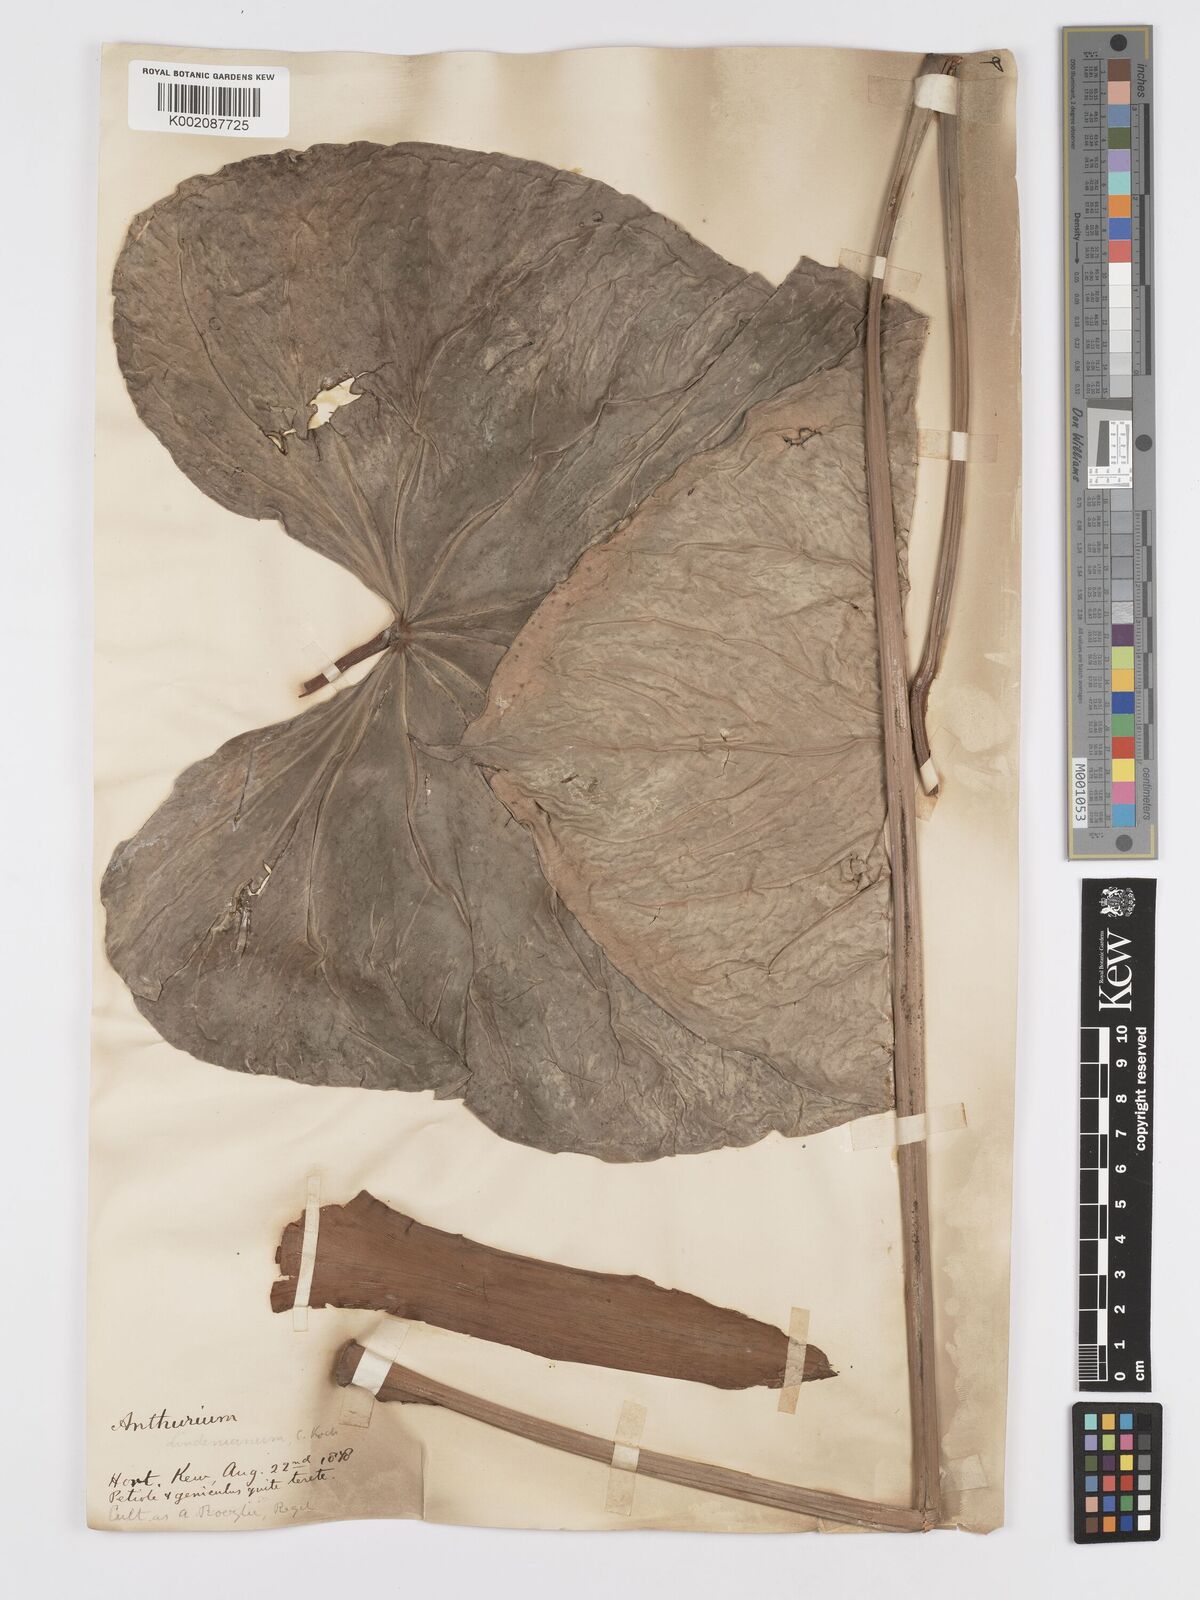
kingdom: Plantae
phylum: Tracheophyta
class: Liliopsida
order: Alismatales
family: Araceae
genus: Anthurium
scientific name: Anthurium lindenianum
